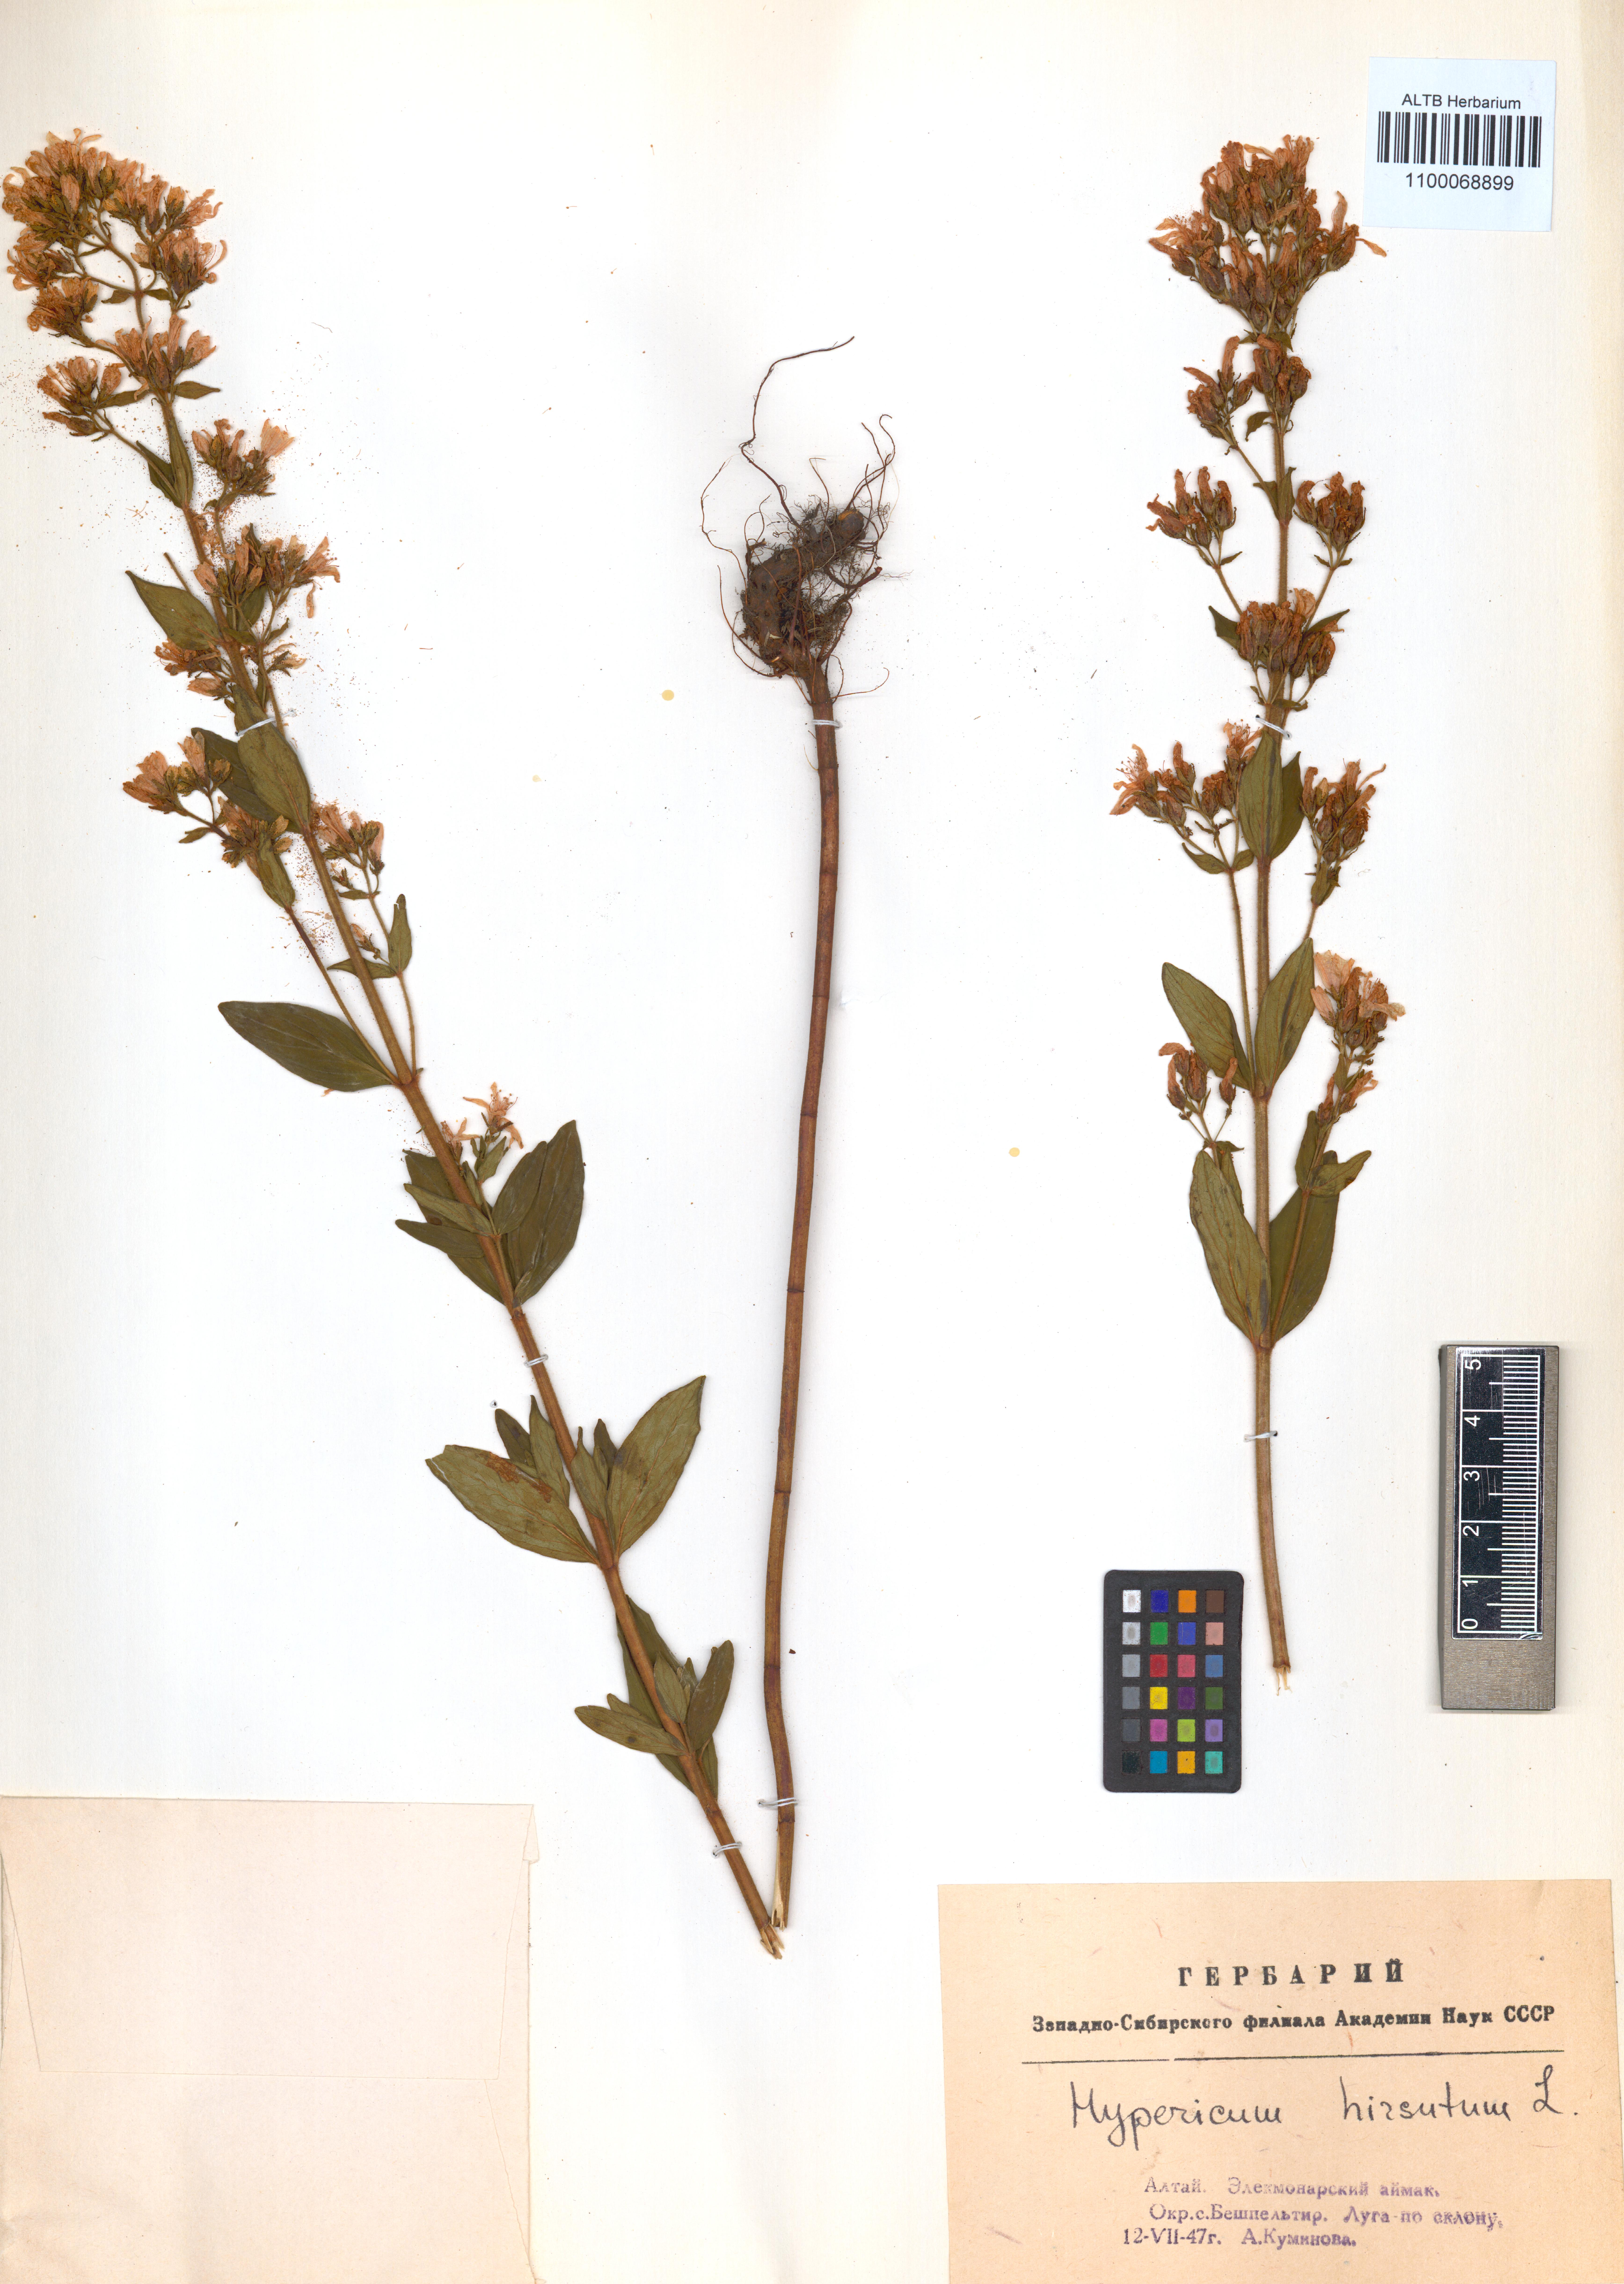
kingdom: Plantae
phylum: Tracheophyta
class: Magnoliopsida
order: Malpighiales
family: Hypericaceae
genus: Hypericum
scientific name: Hypericum hirsutum
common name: Hairy st. john's-wort
